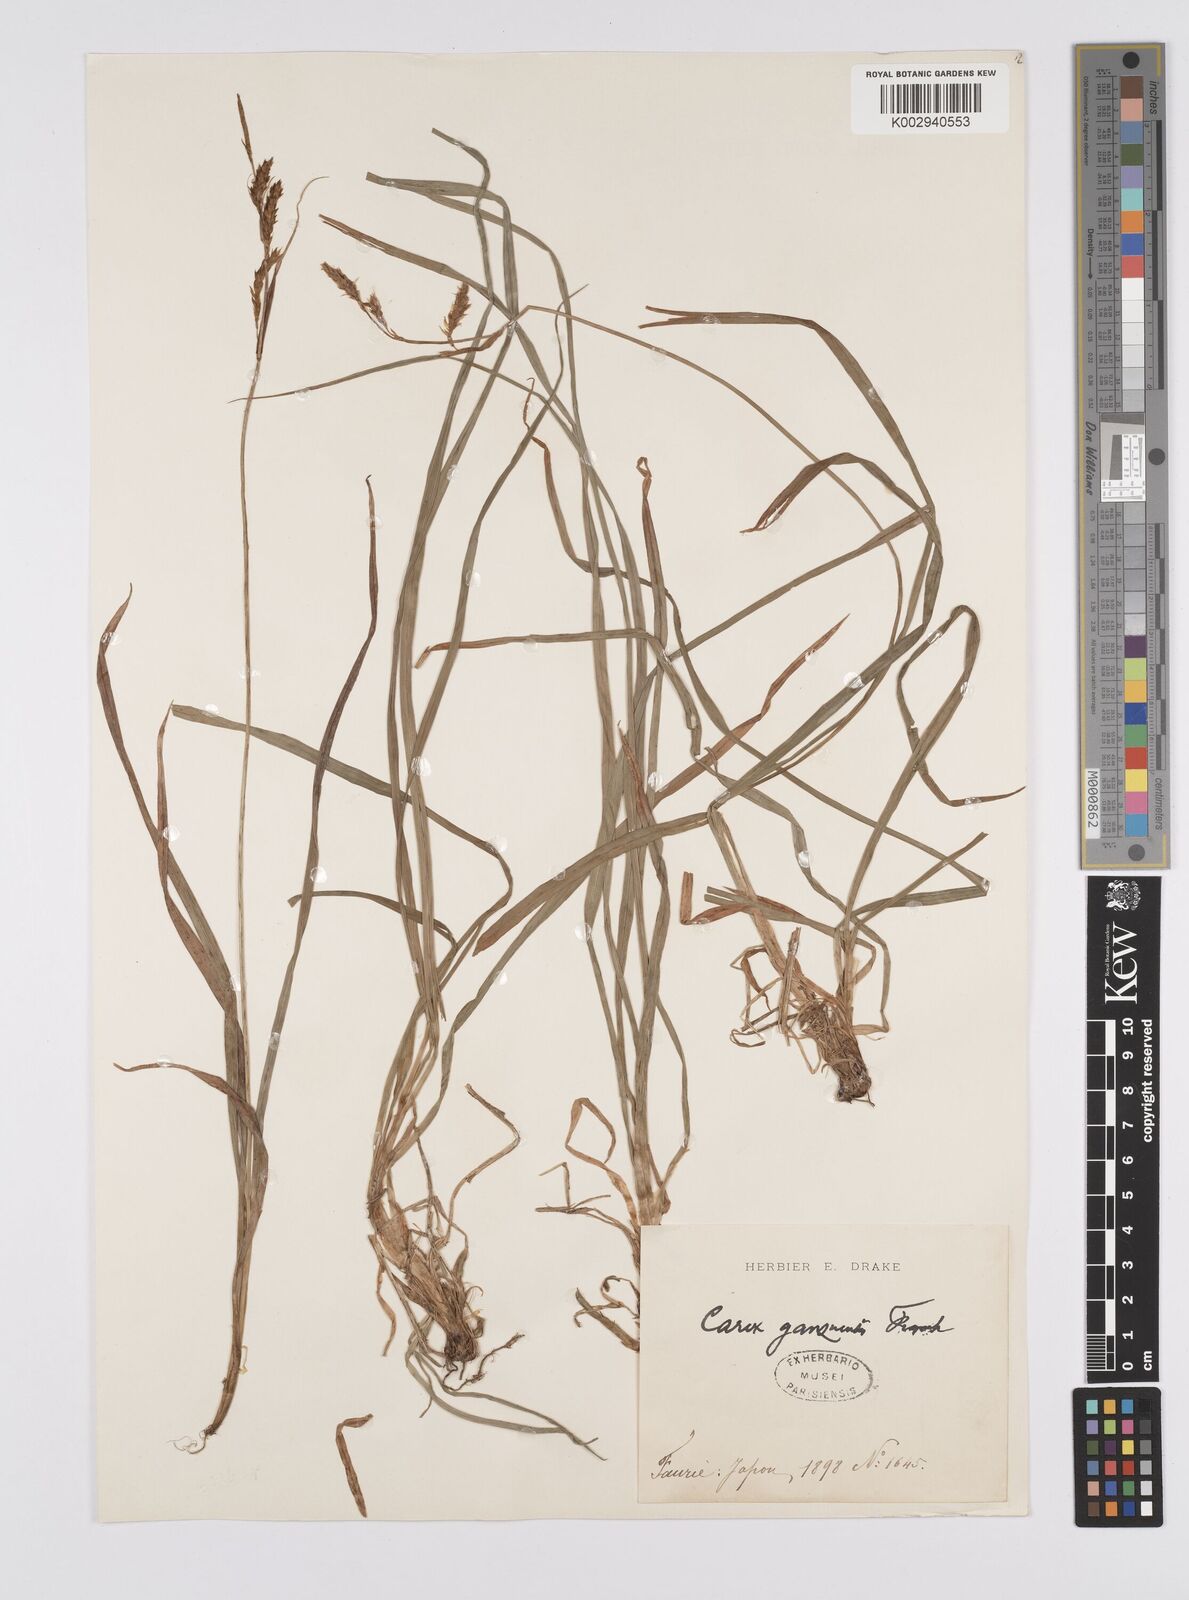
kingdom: Plantae
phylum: Tracheophyta
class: Liliopsida
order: Poales
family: Cyperaceae
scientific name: Cyperaceae
